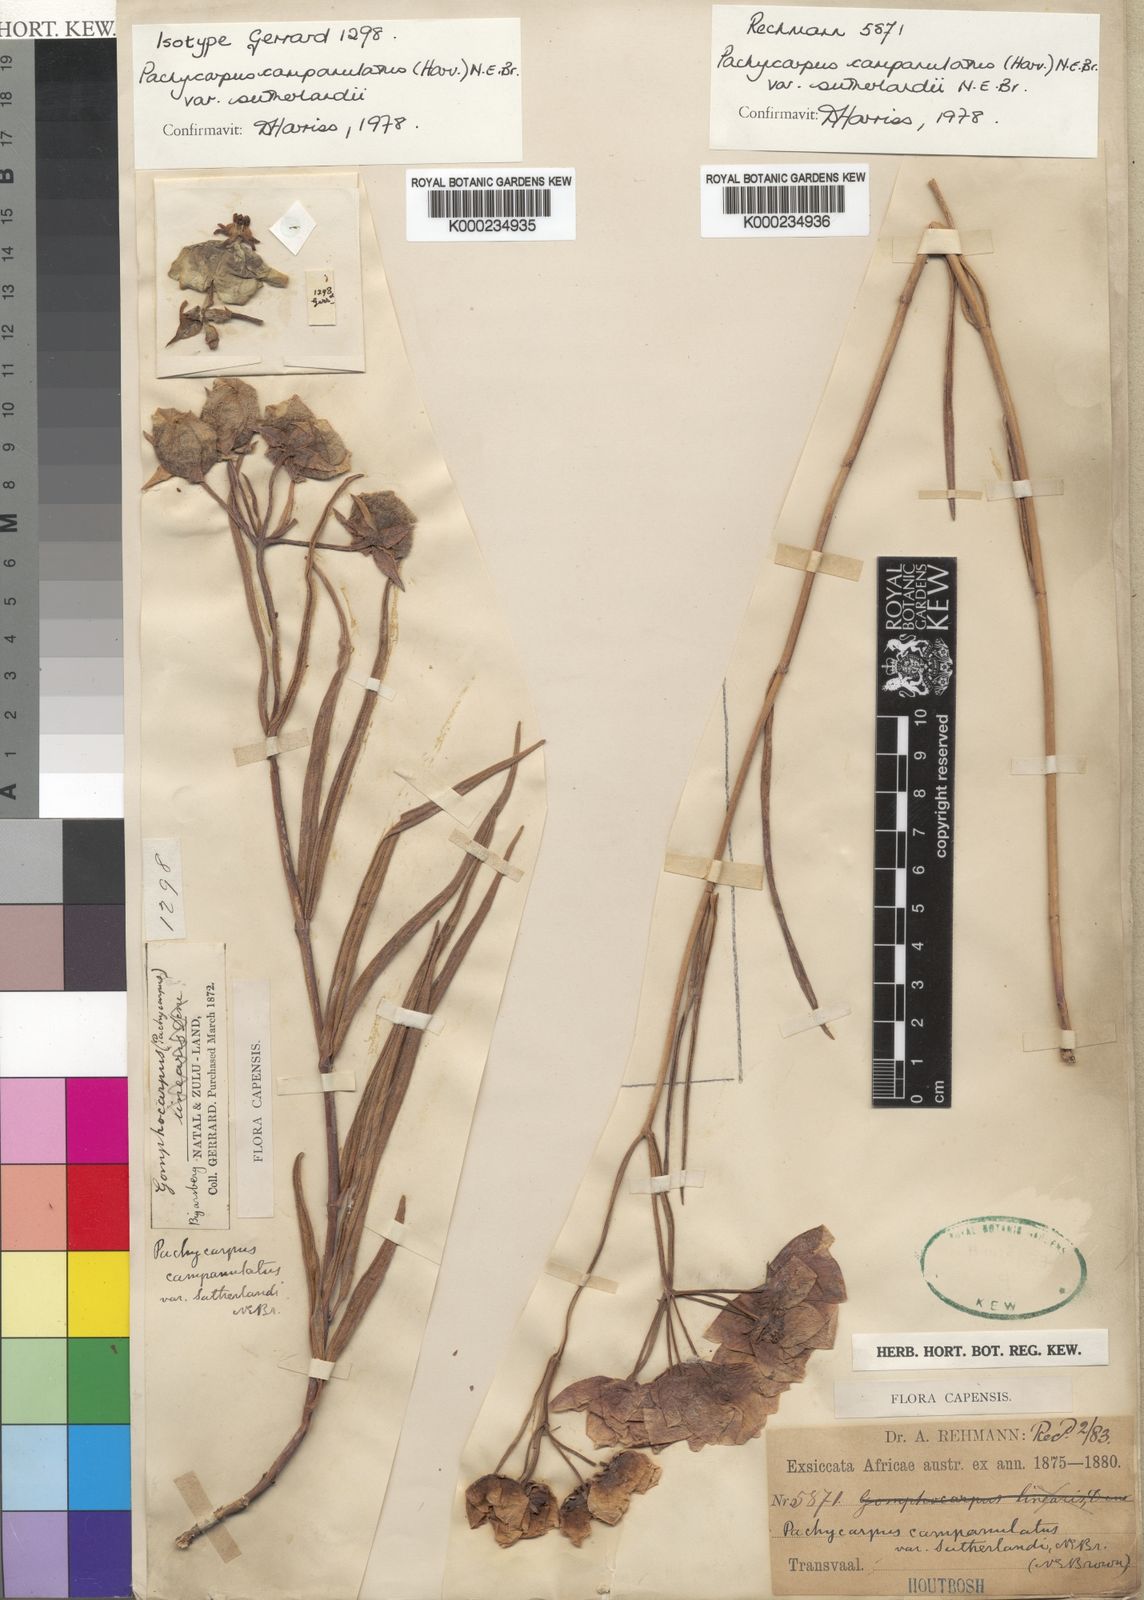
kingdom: Plantae
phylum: Tracheophyta
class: Magnoliopsida
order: Gentianales
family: Apocynaceae
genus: Pachycarpus
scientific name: Pachycarpus campanulatus
